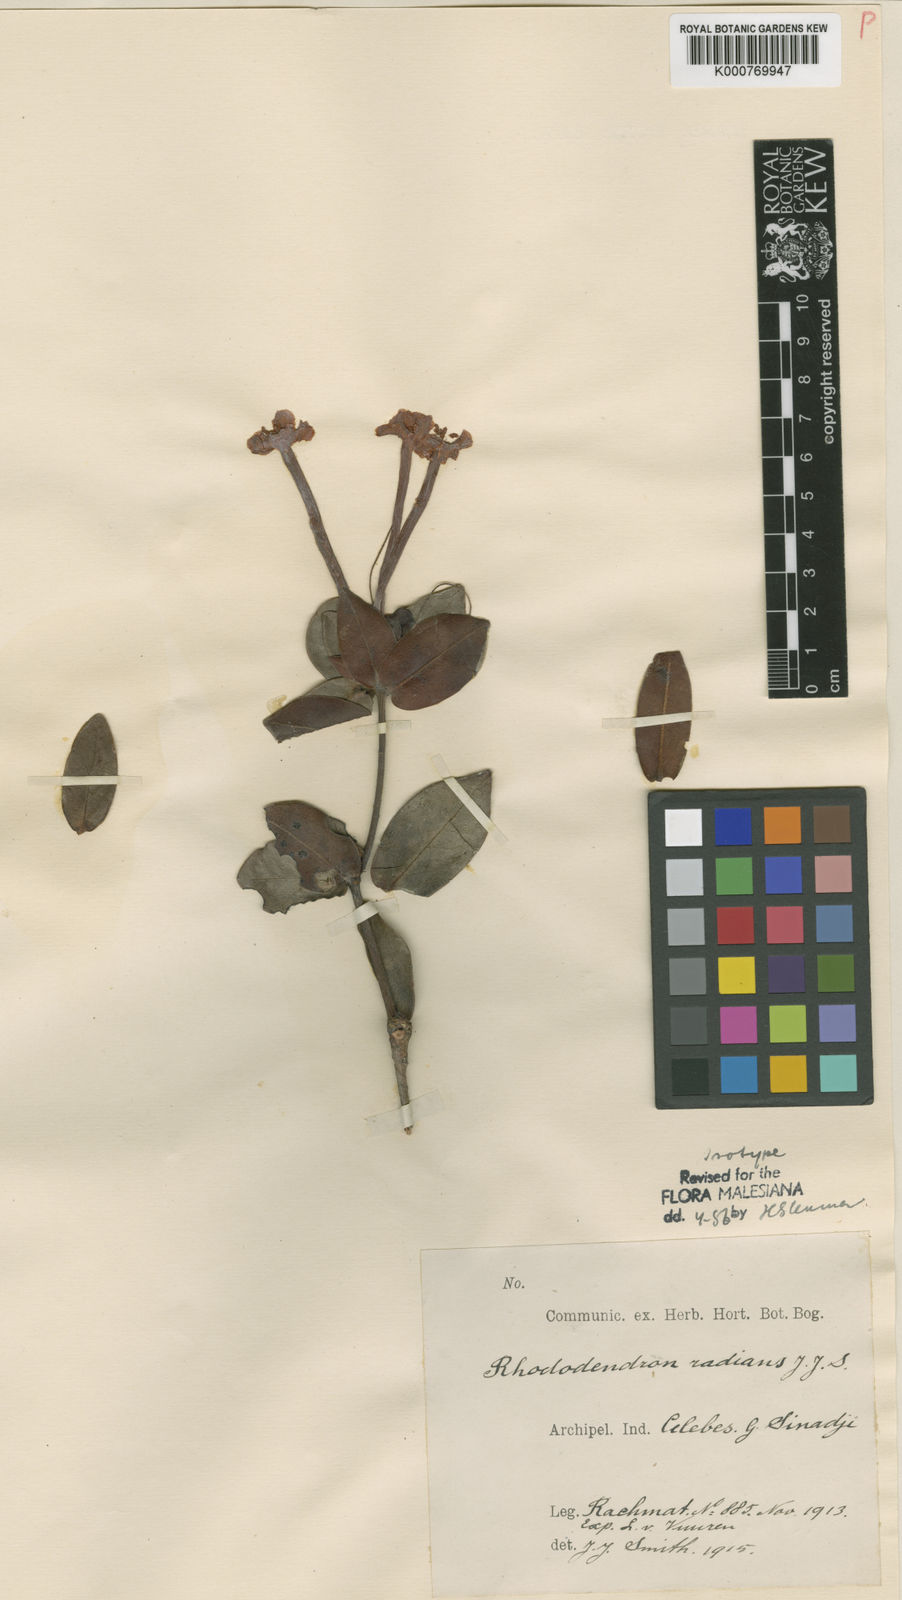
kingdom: Plantae
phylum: Tracheophyta
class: Magnoliopsida
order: Ericales
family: Ericaceae
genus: Rhododendron
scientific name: Rhododendron radians
